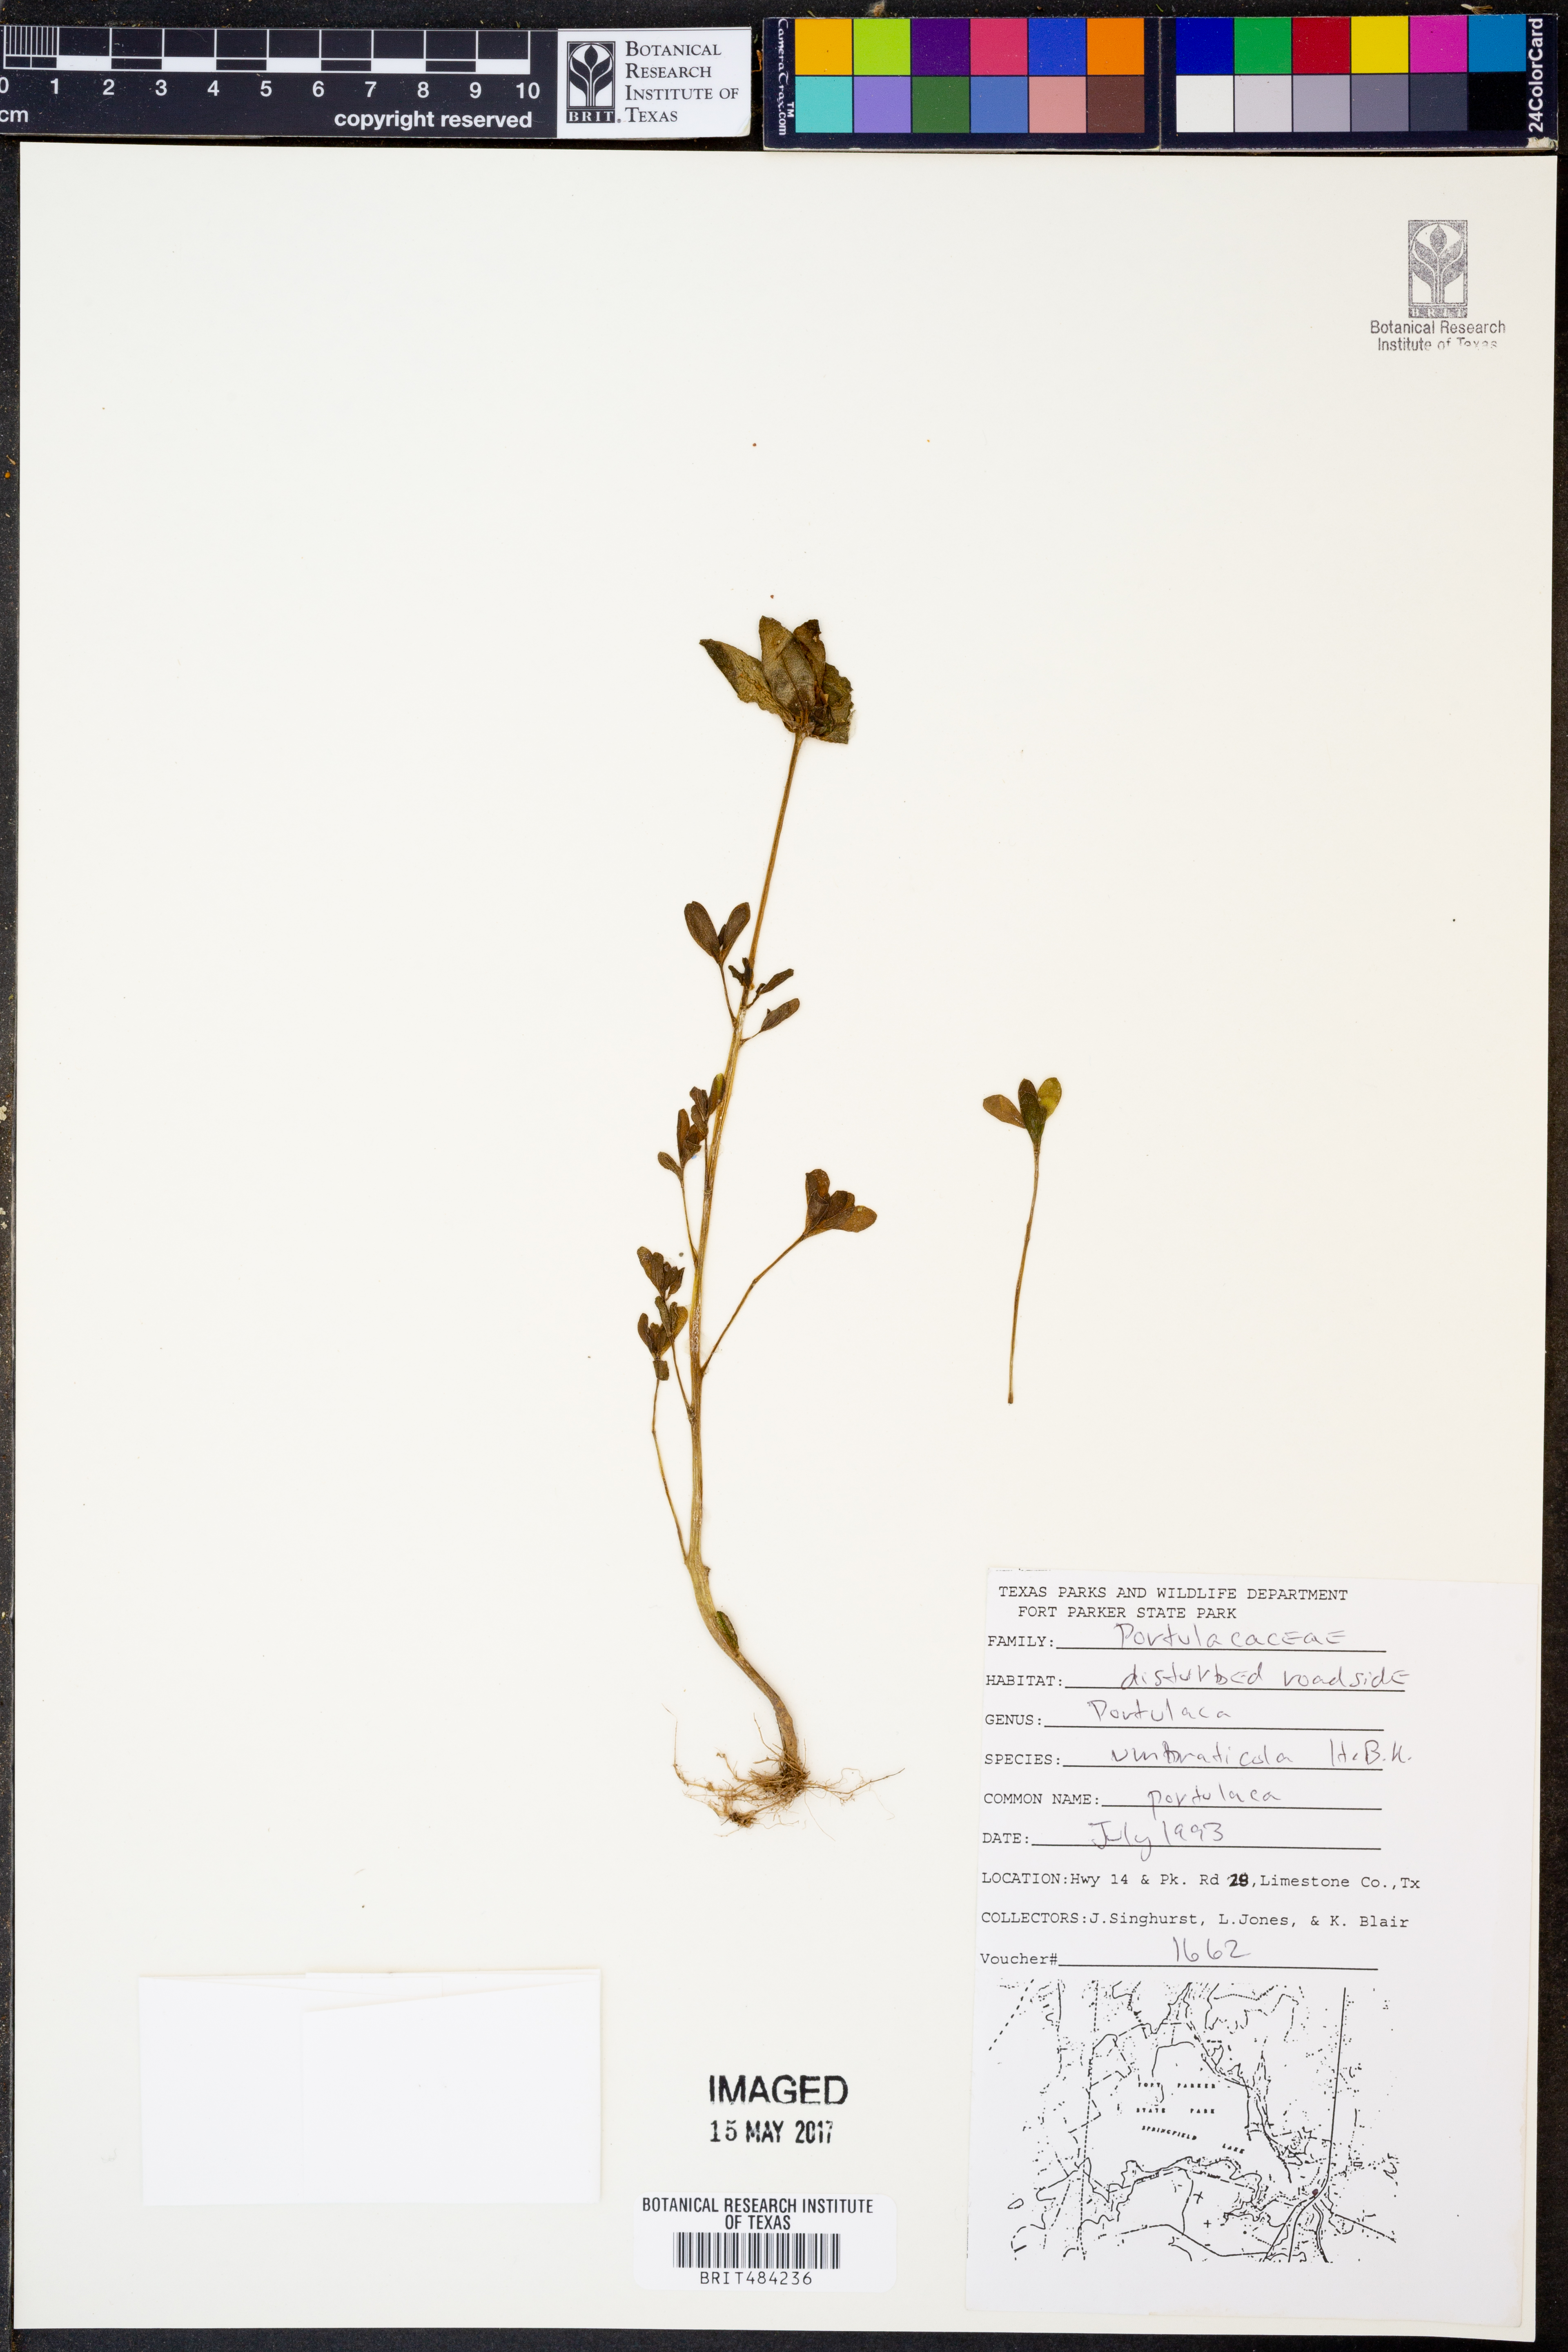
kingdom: Plantae
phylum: Tracheophyta
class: Magnoliopsida
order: Caryophyllales
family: Portulacaceae
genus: Portulaca
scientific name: Portulaca umbraticola
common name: Wingpod purslane
